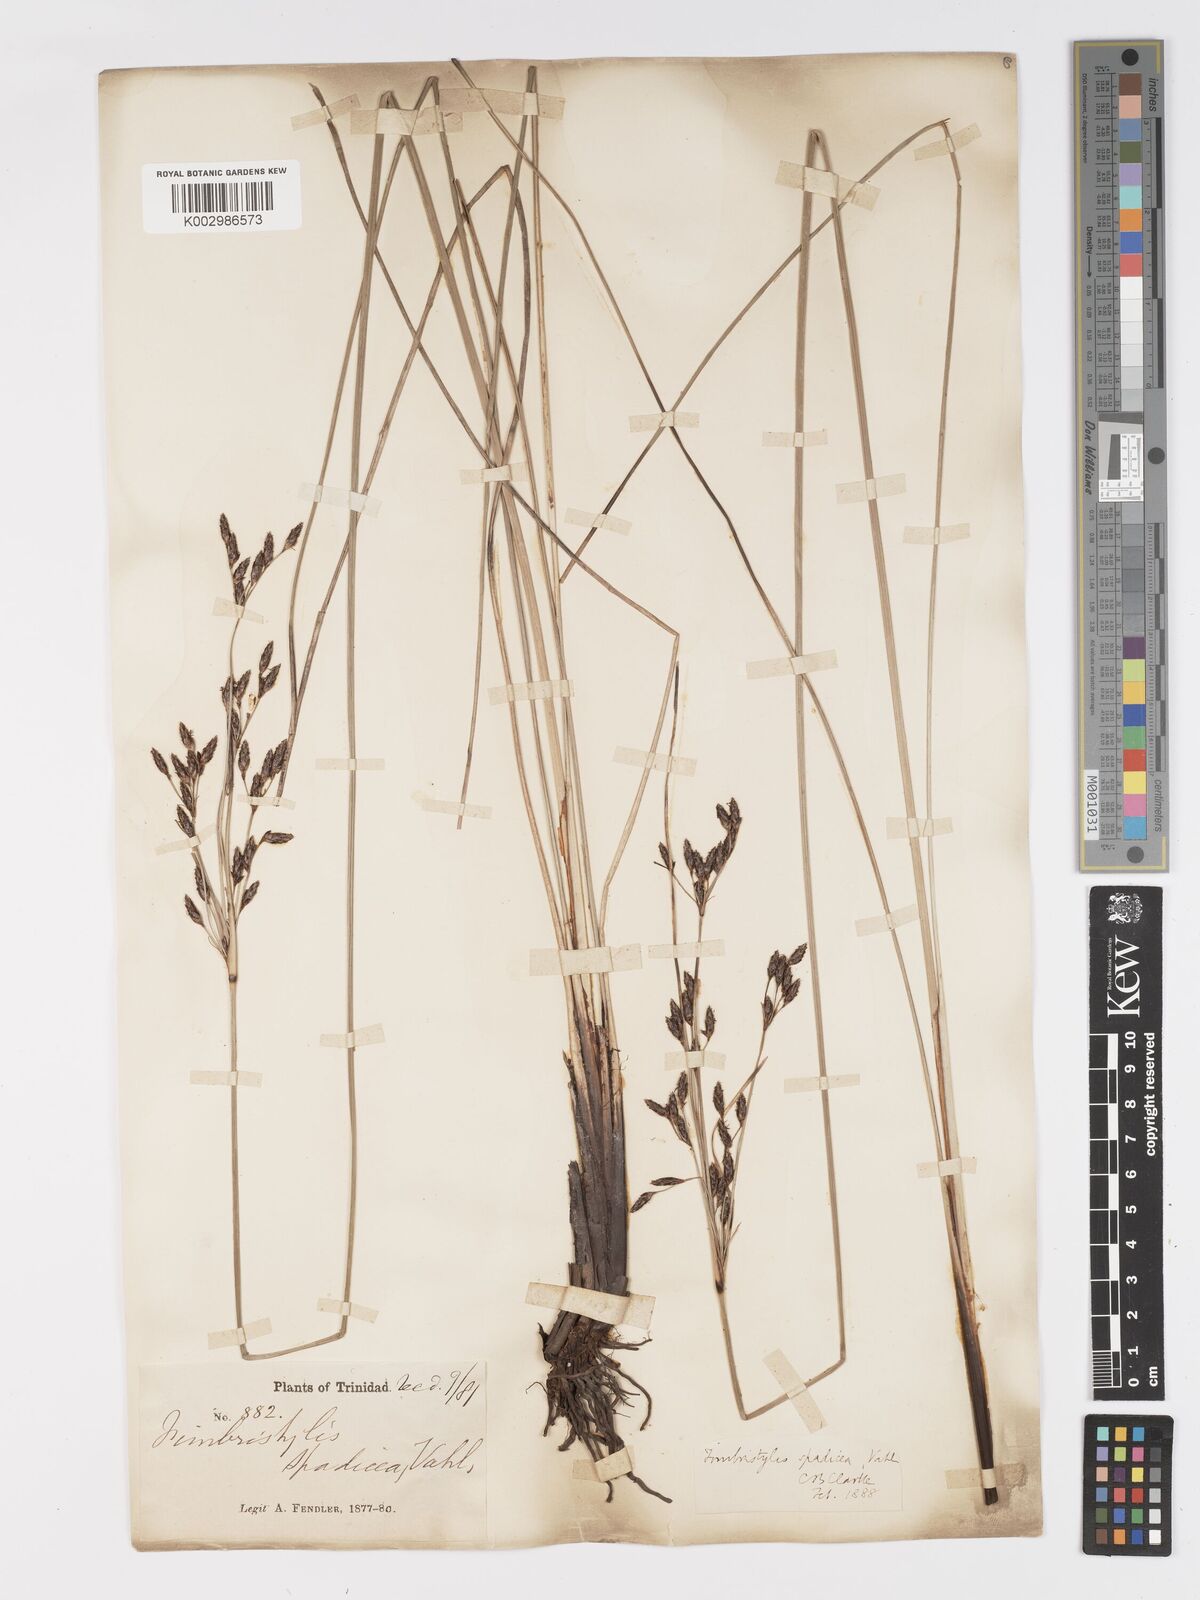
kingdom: Plantae
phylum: Tracheophyta
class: Liliopsida
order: Poales
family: Cyperaceae
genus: Fimbristylis
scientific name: Fimbristylis spadicea
